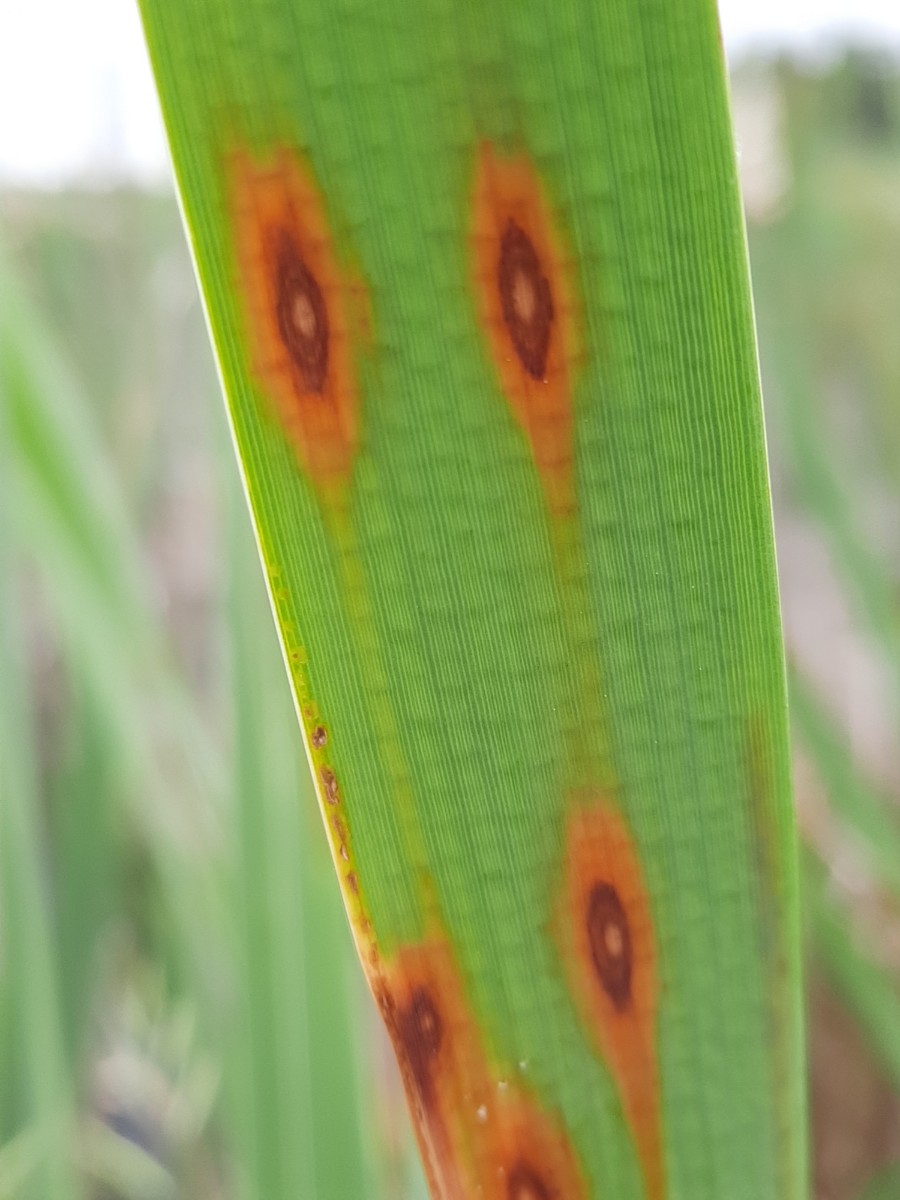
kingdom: Fungi
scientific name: Fungi
